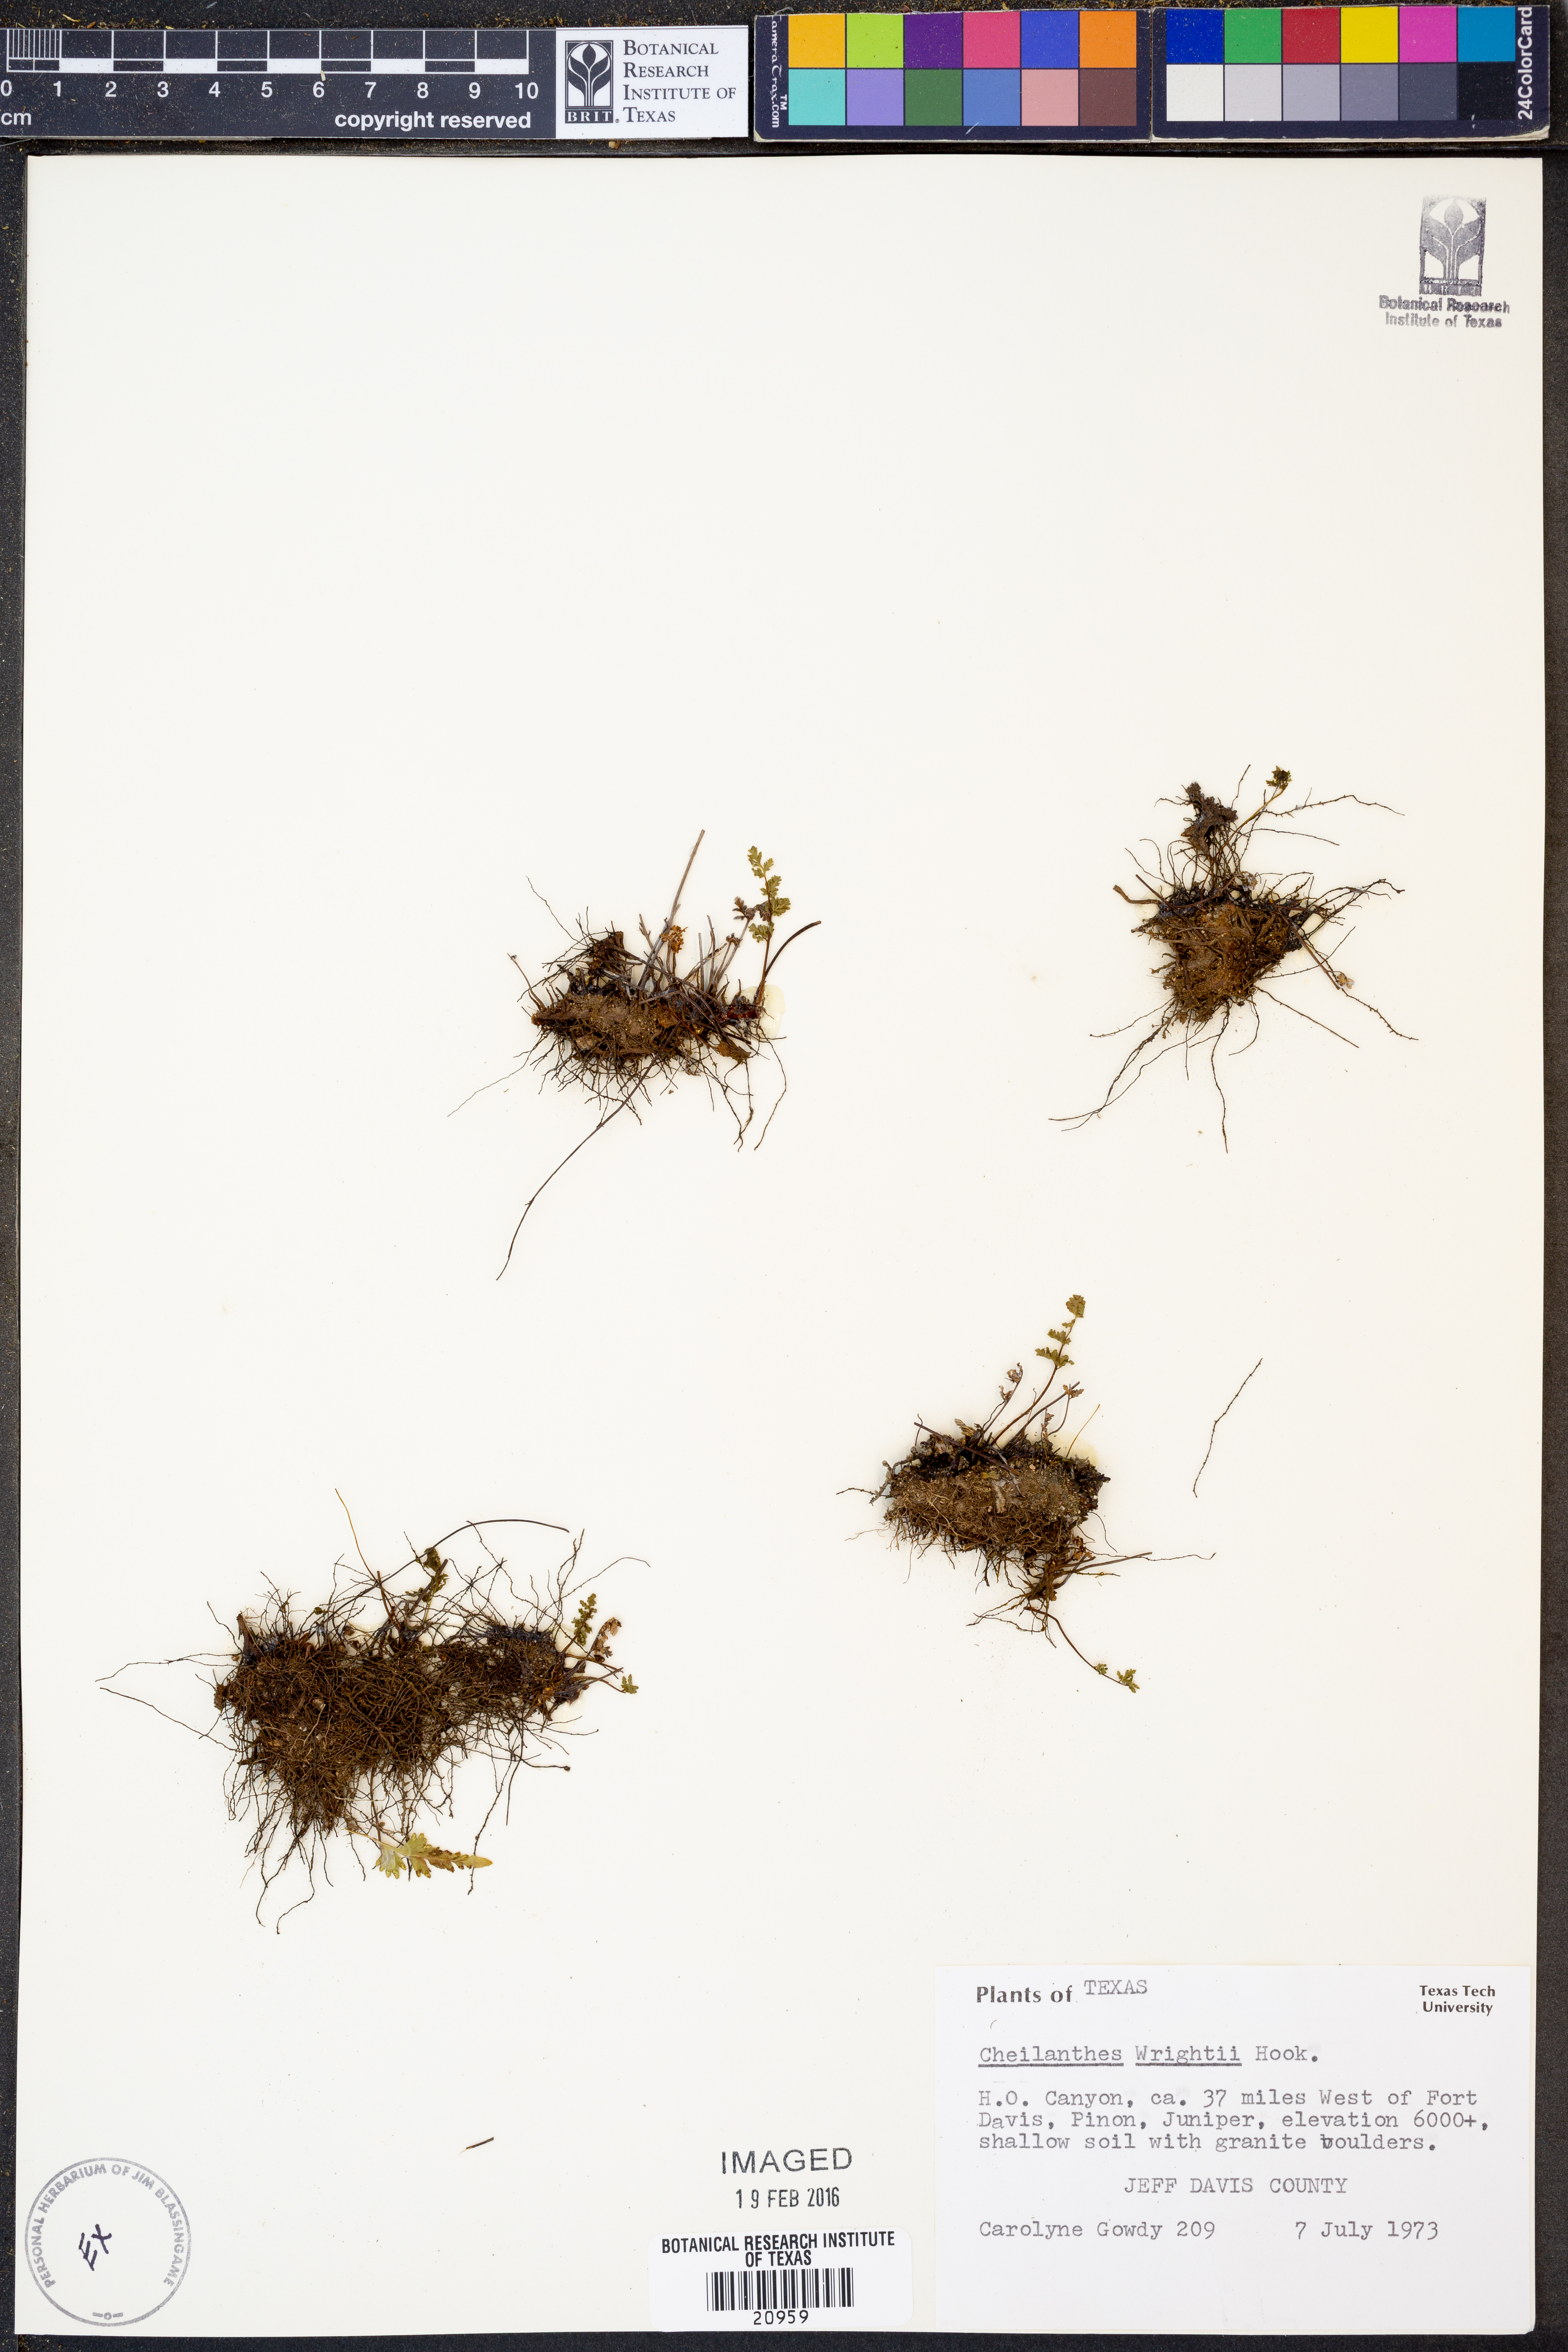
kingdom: Plantae
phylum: Tracheophyta
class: Polypodiopsida
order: Polypodiales
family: Pteridaceae
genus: Myriopteris
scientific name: Myriopteris wrightii
